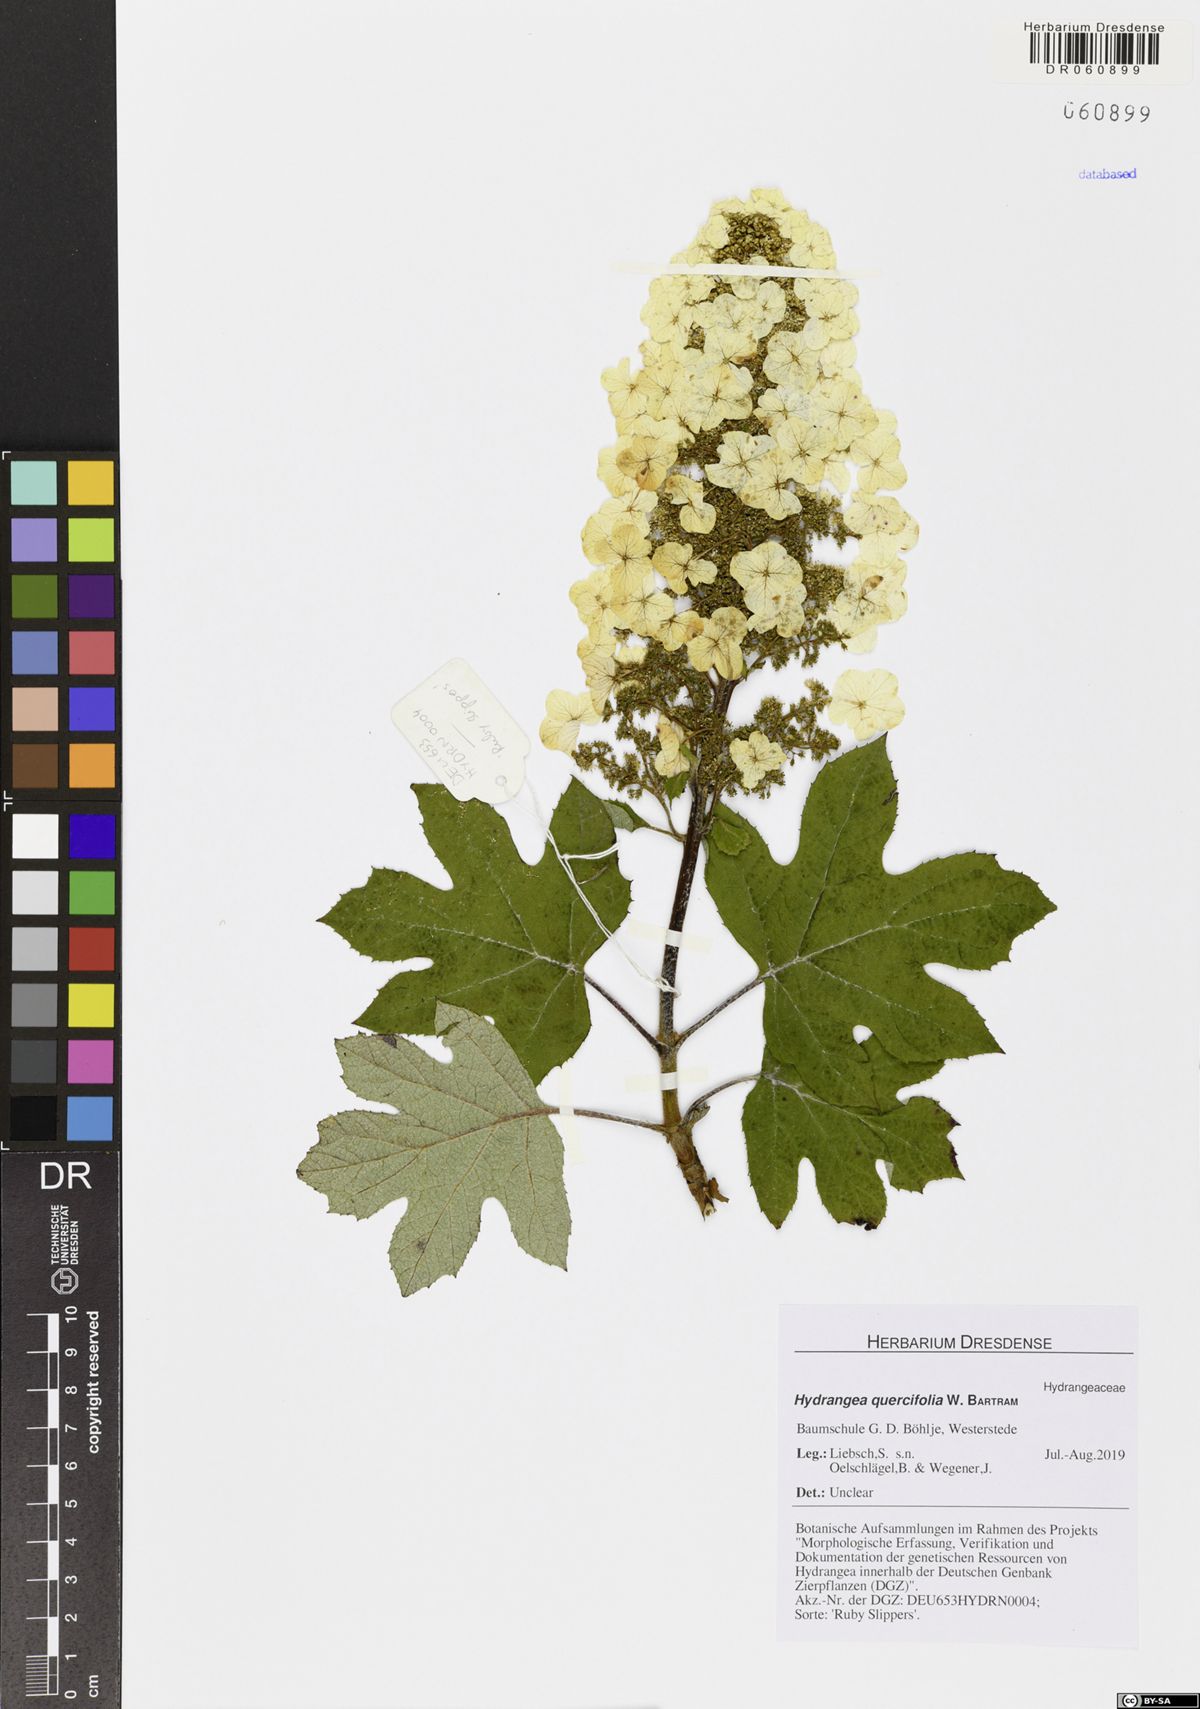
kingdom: Plantae
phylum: Tracheophyta
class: Magnoliopsida
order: Cornales
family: Hydrangeaceae
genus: Hydrangea
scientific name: Hydrangea quercifolia
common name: Oak-leaf hydrangea
